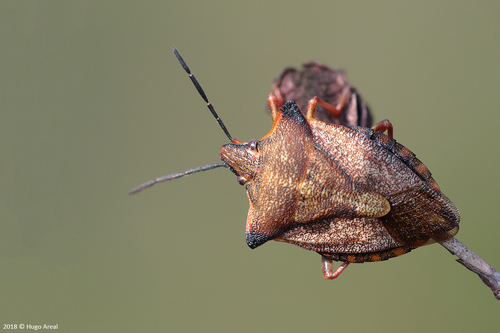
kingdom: Animalia
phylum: Arthropoda
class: Insecta
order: Hemiptera
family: Pentatomidae
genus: Carpocoris
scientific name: Carpocoris mediterraneus
